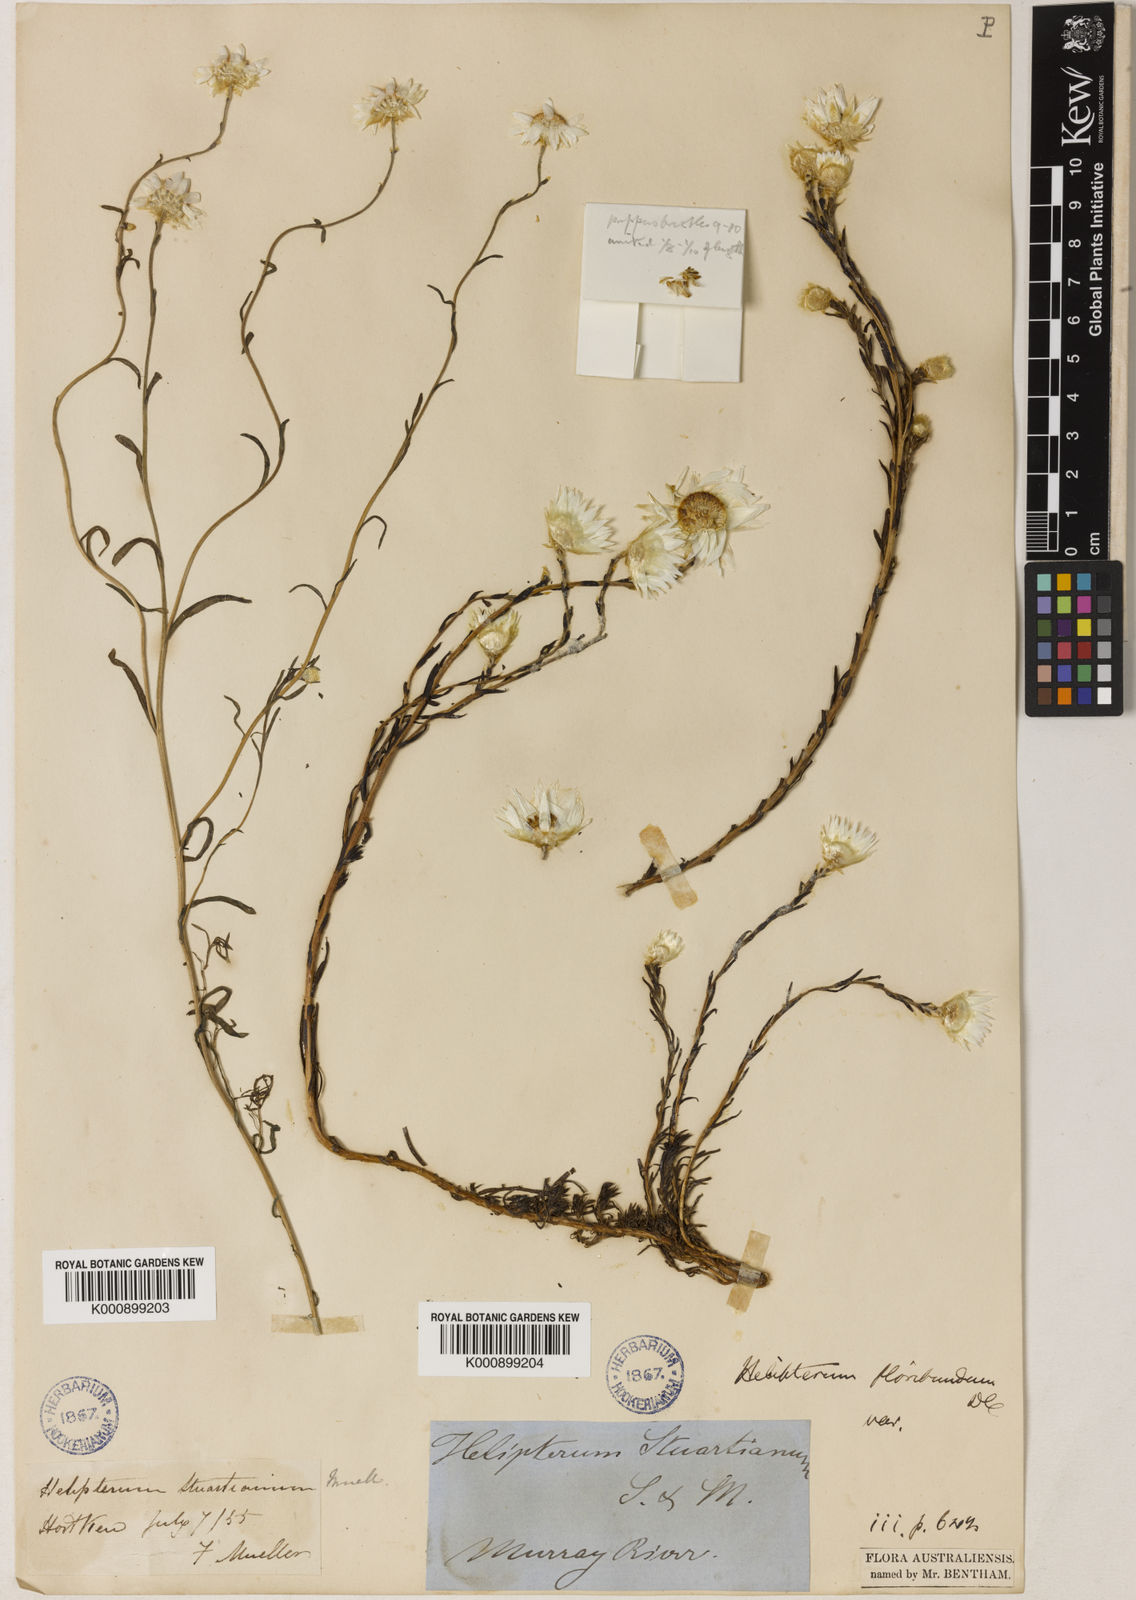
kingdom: Plantae
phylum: Tracheophyta
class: Magnoliopsida
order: Asterales
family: Asteraceae
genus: Rhodanthe
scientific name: Rhodanthe stuartiana
